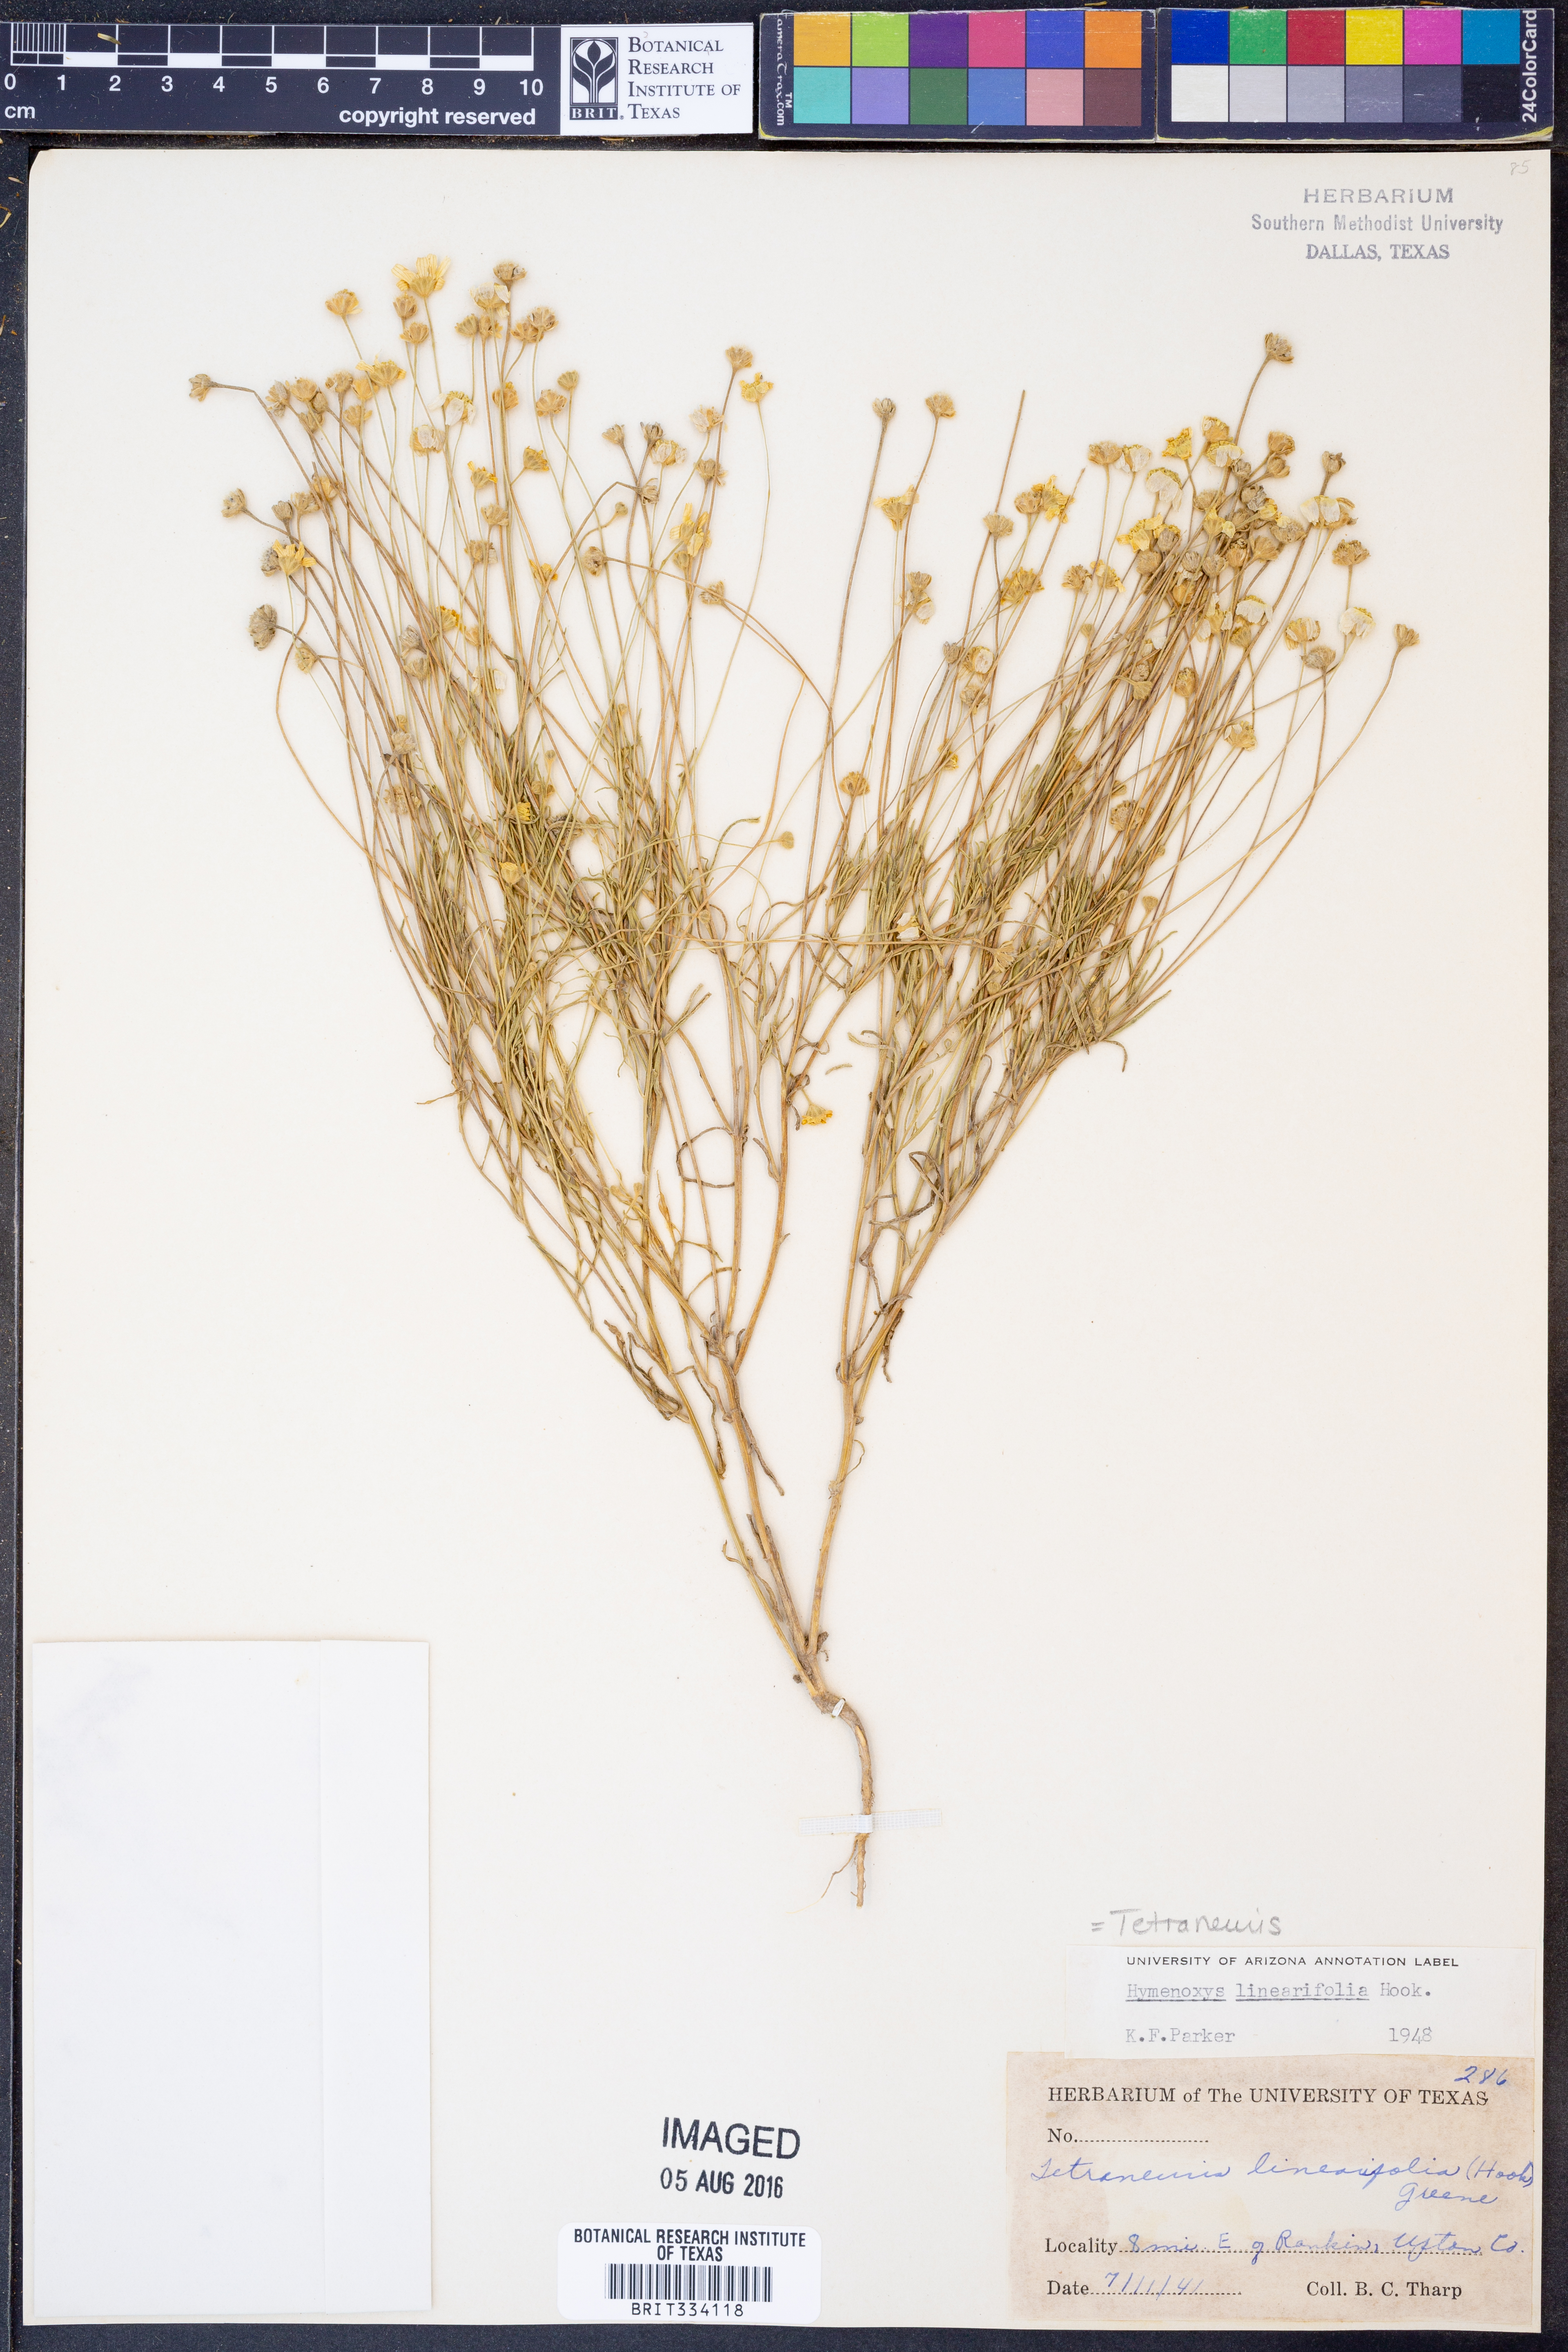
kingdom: Plantae
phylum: Tracheophyta
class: Magnoliopsida
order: Asterales
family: Asteraceae
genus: Tetraneuris
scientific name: Tetraneuris linearifolia
